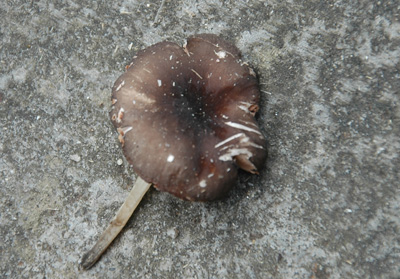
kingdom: Fungi
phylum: Basidiomycota
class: Agaricomycetes
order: Agaricales
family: Pluteaceae
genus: Pluteus
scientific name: Pluteus
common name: pudret skærmhat
